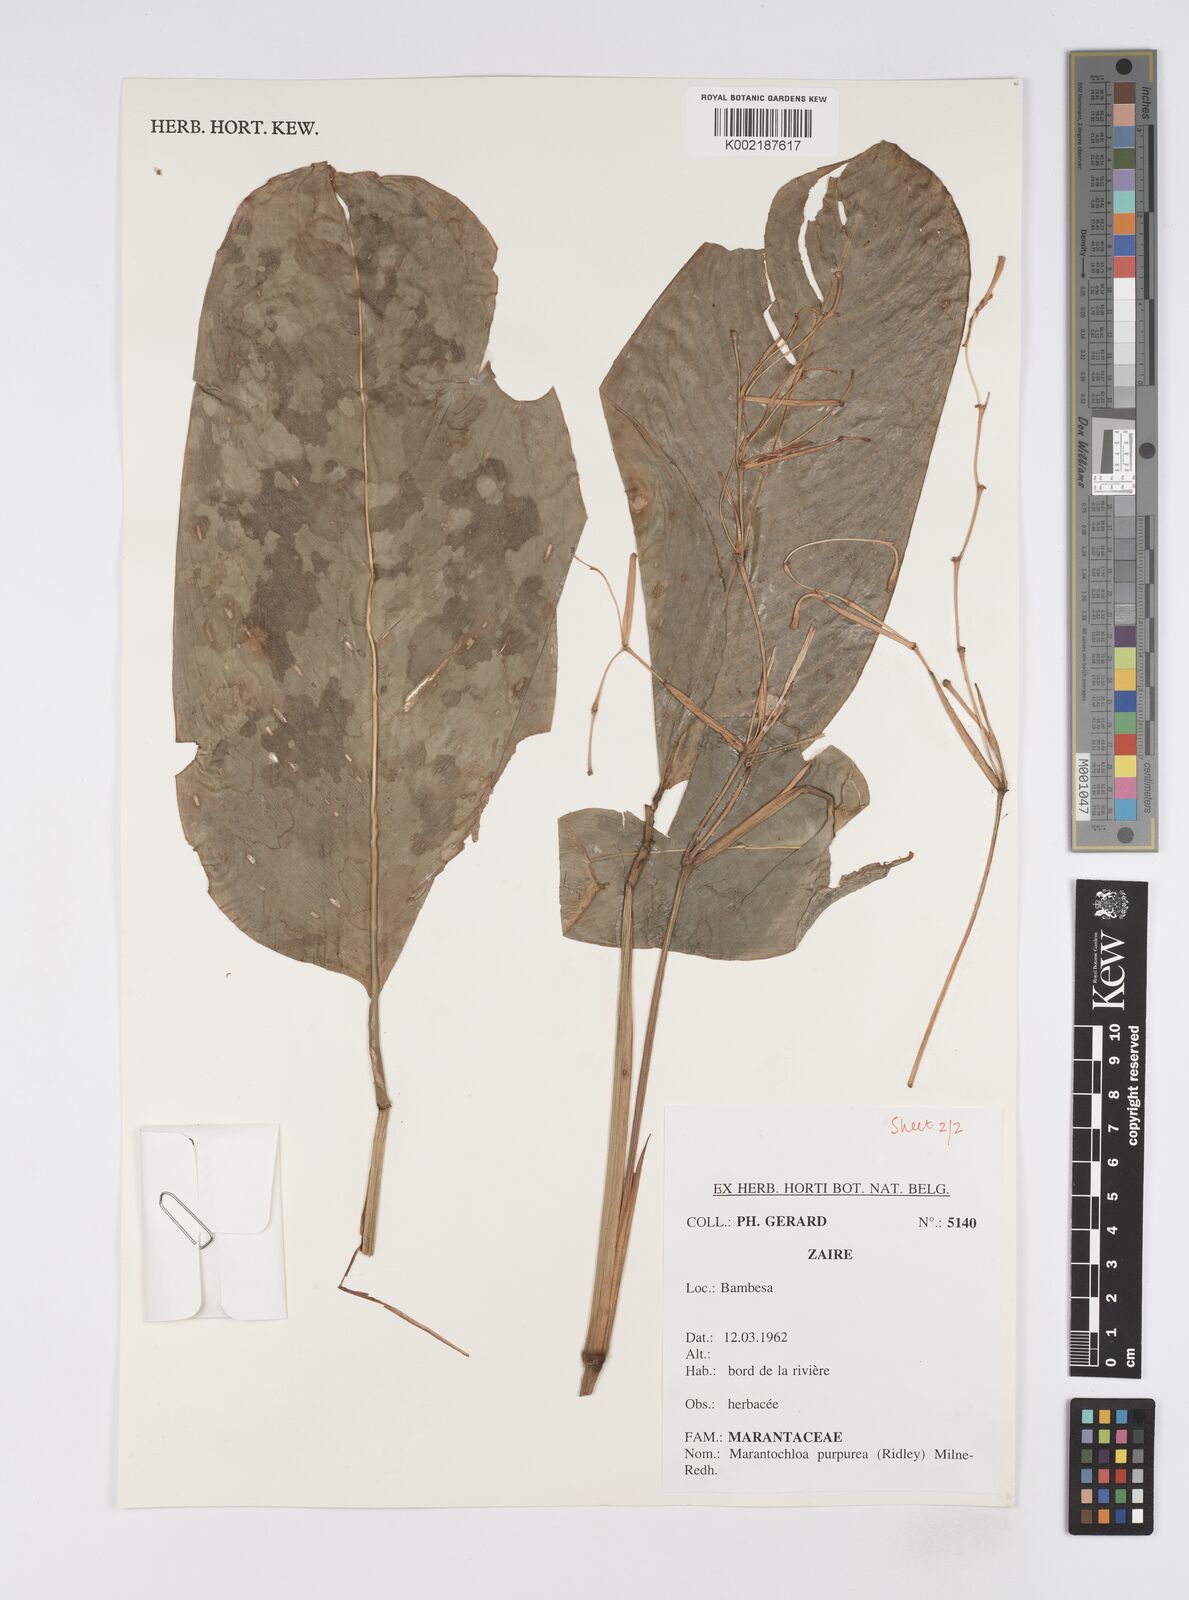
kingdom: Plantae
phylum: Tracheophyta
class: Liliopsida
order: Zingiberales
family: Marantaceae
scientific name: Marantaceae
